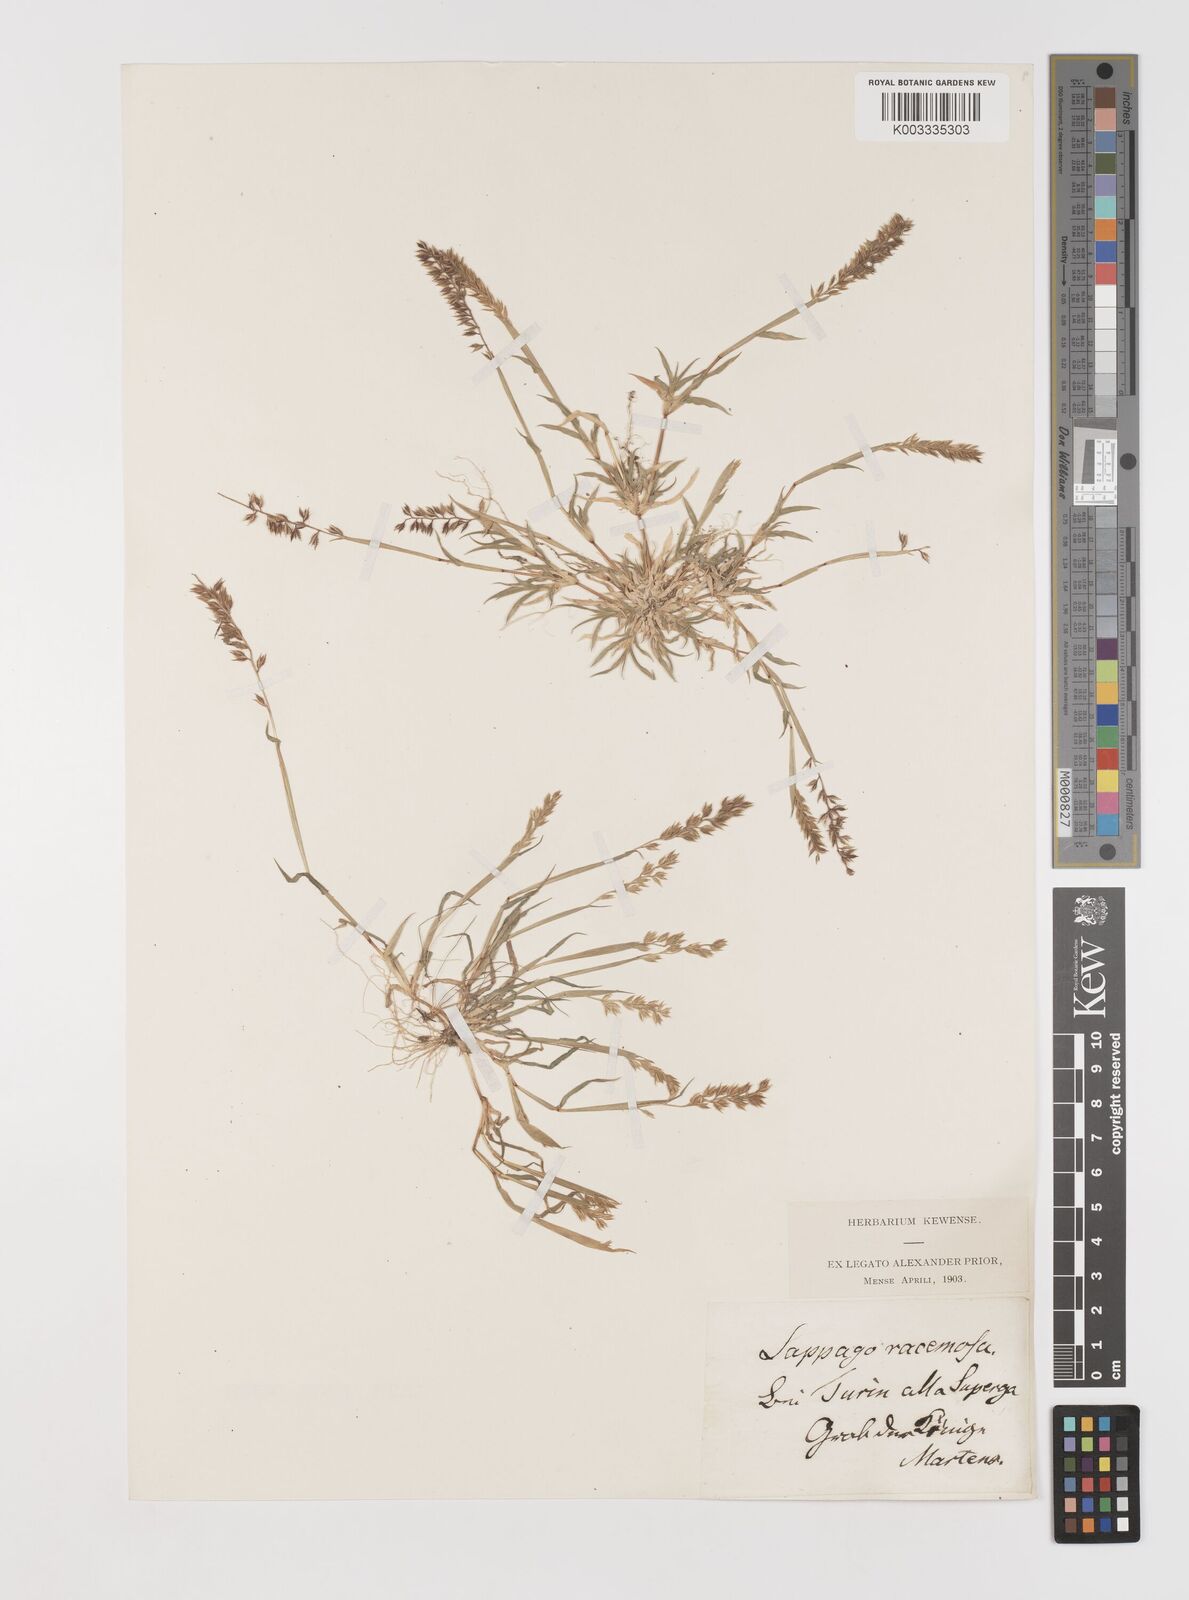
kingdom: Plantae
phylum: Tracheophyta
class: Liliopsida
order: Poales
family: Poaceae
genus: Tragus
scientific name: Tragus racemosus
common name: European bur-grass
